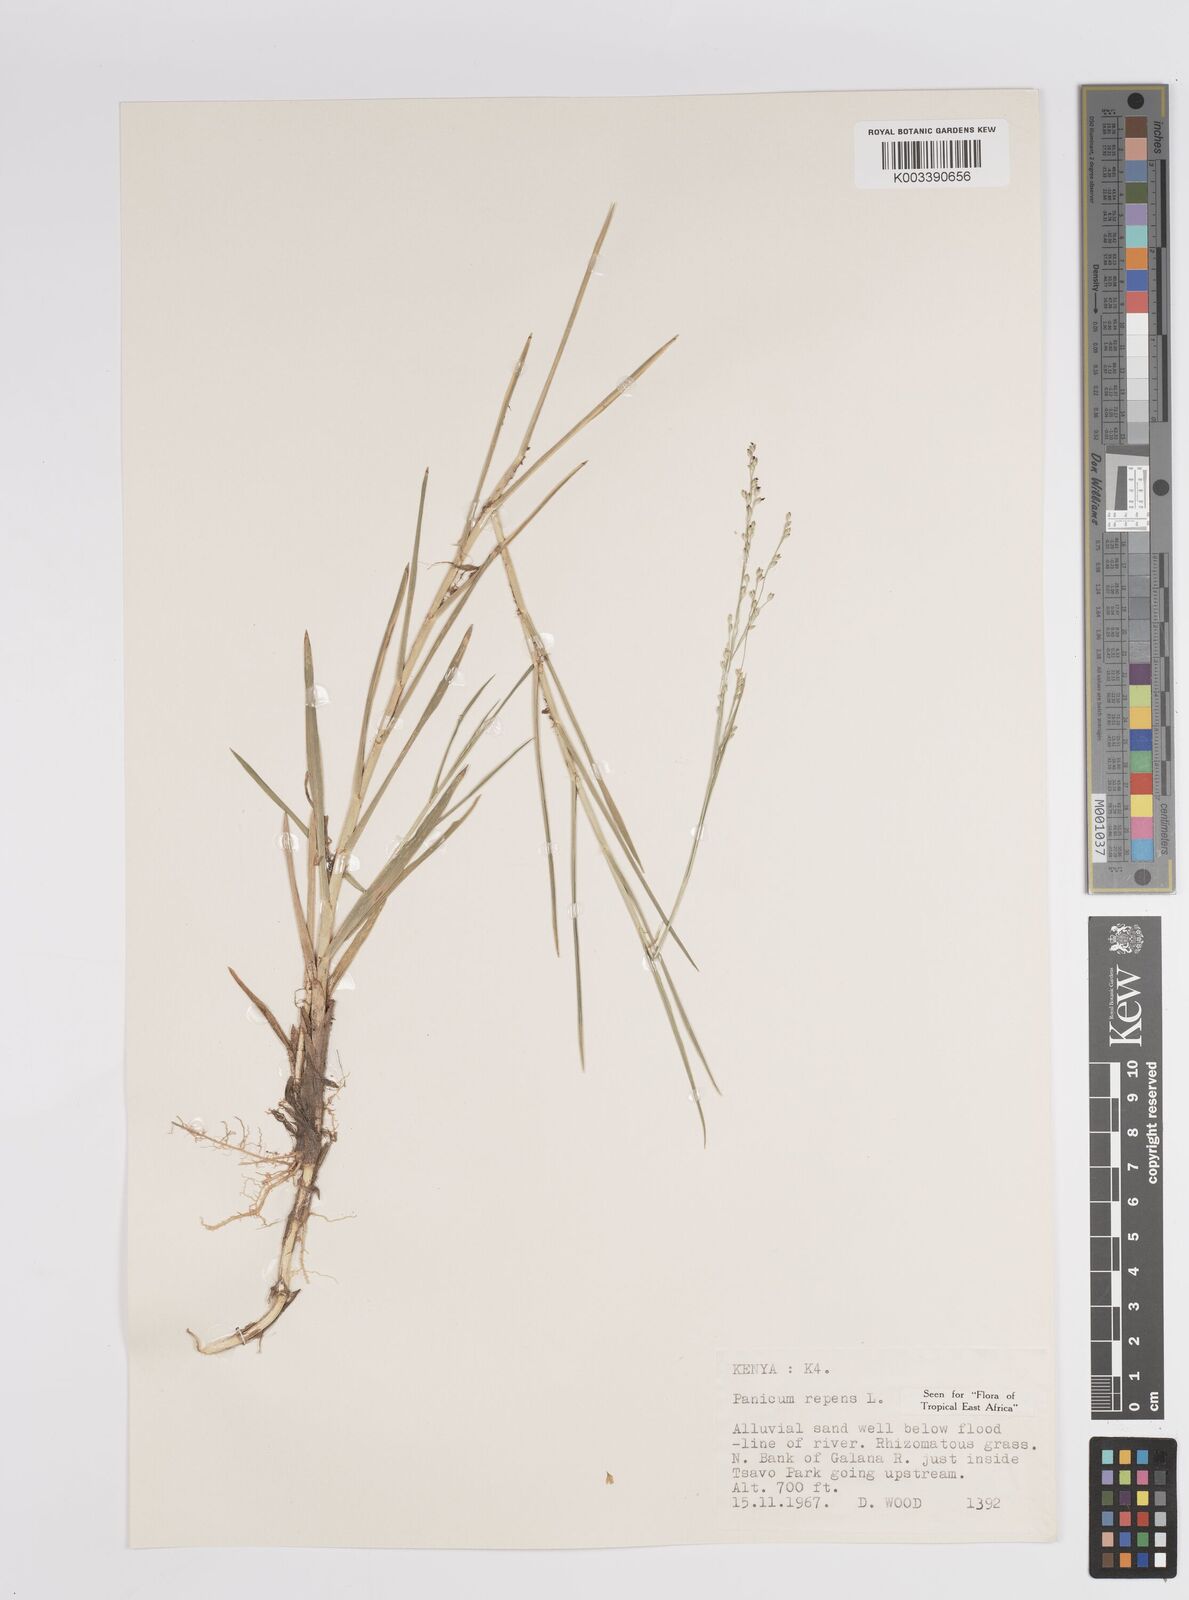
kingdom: Plantae
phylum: Tracheophyta
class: Liliopsida
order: Poales
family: Poaceae
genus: Panicum
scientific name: Panicum repens
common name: Torpedo grass
